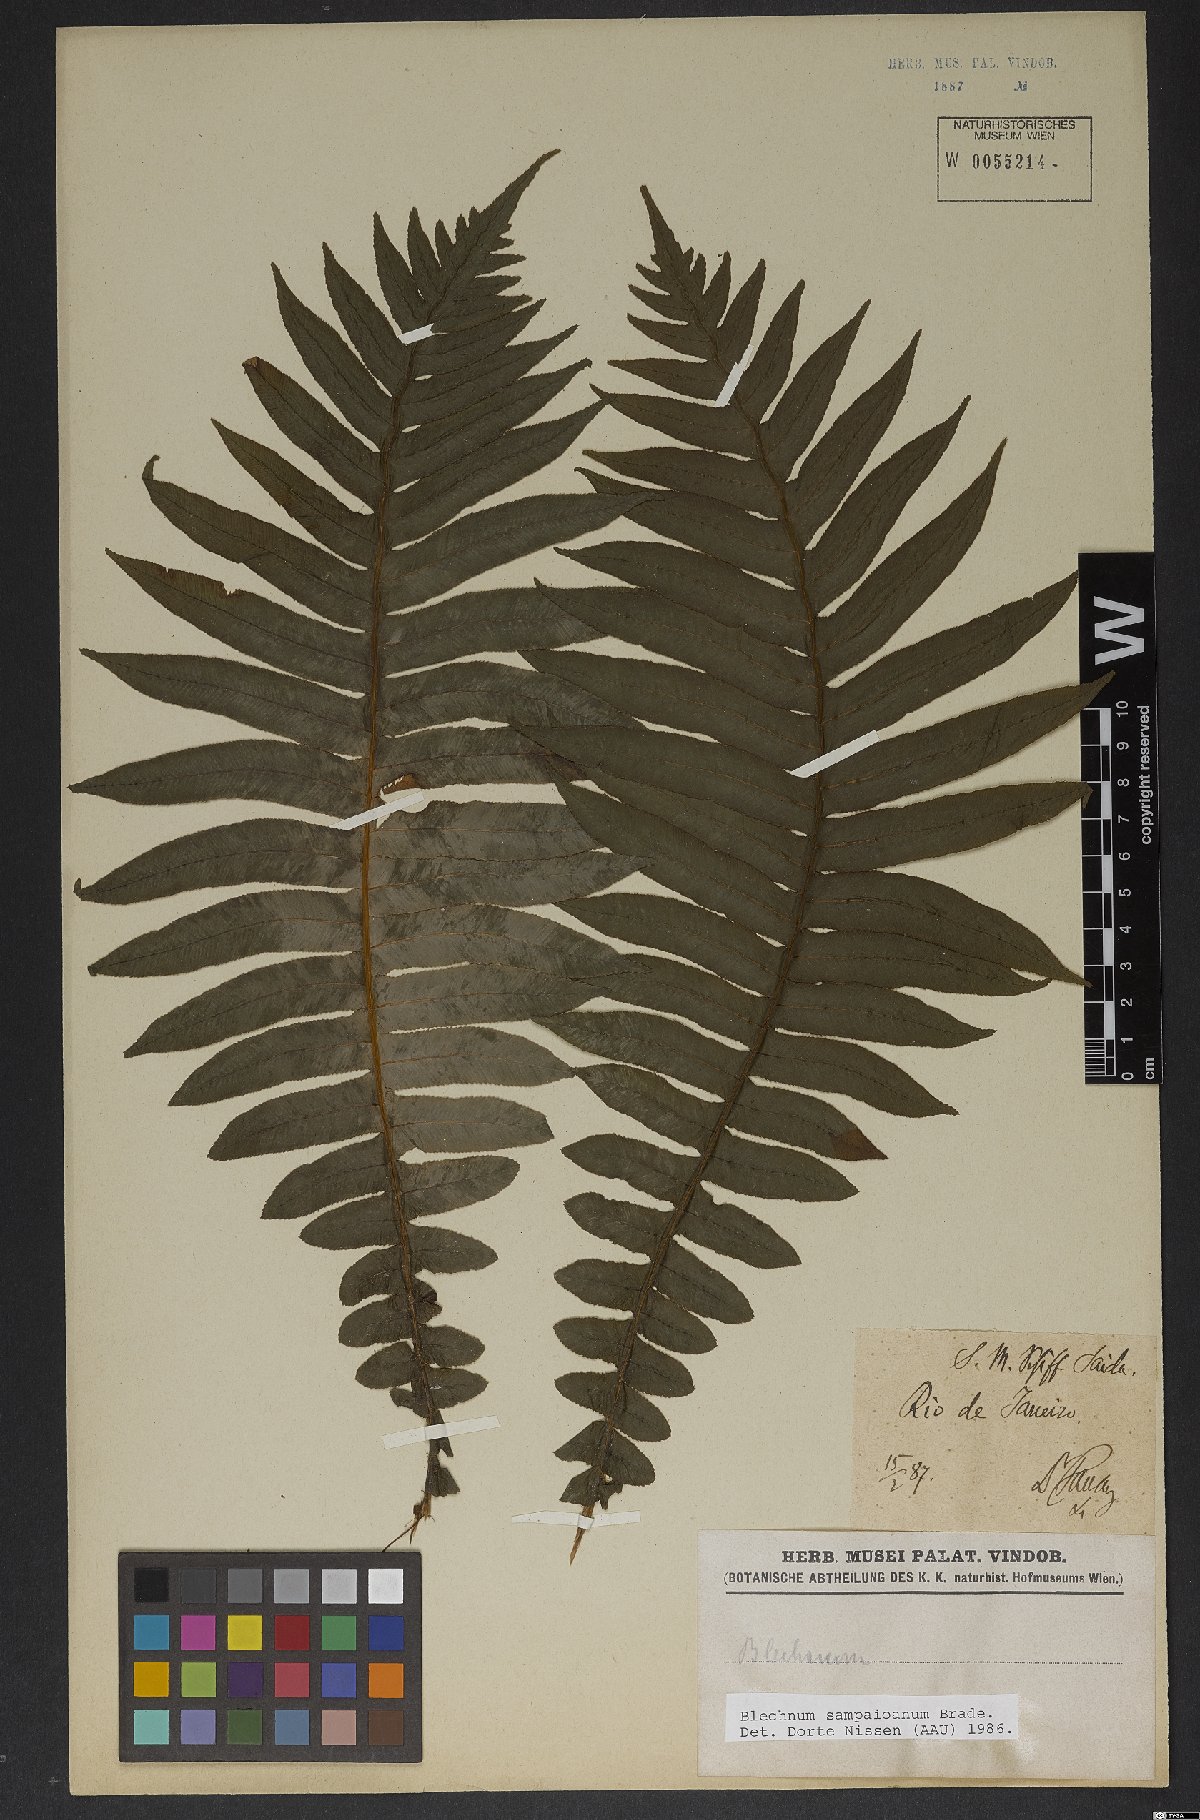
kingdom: Plantae
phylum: Tracheophyta
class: Polypodiopsida
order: Polypodiales
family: Blechnaceae
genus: Cranfillia
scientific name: Cranfillia sampaioana
